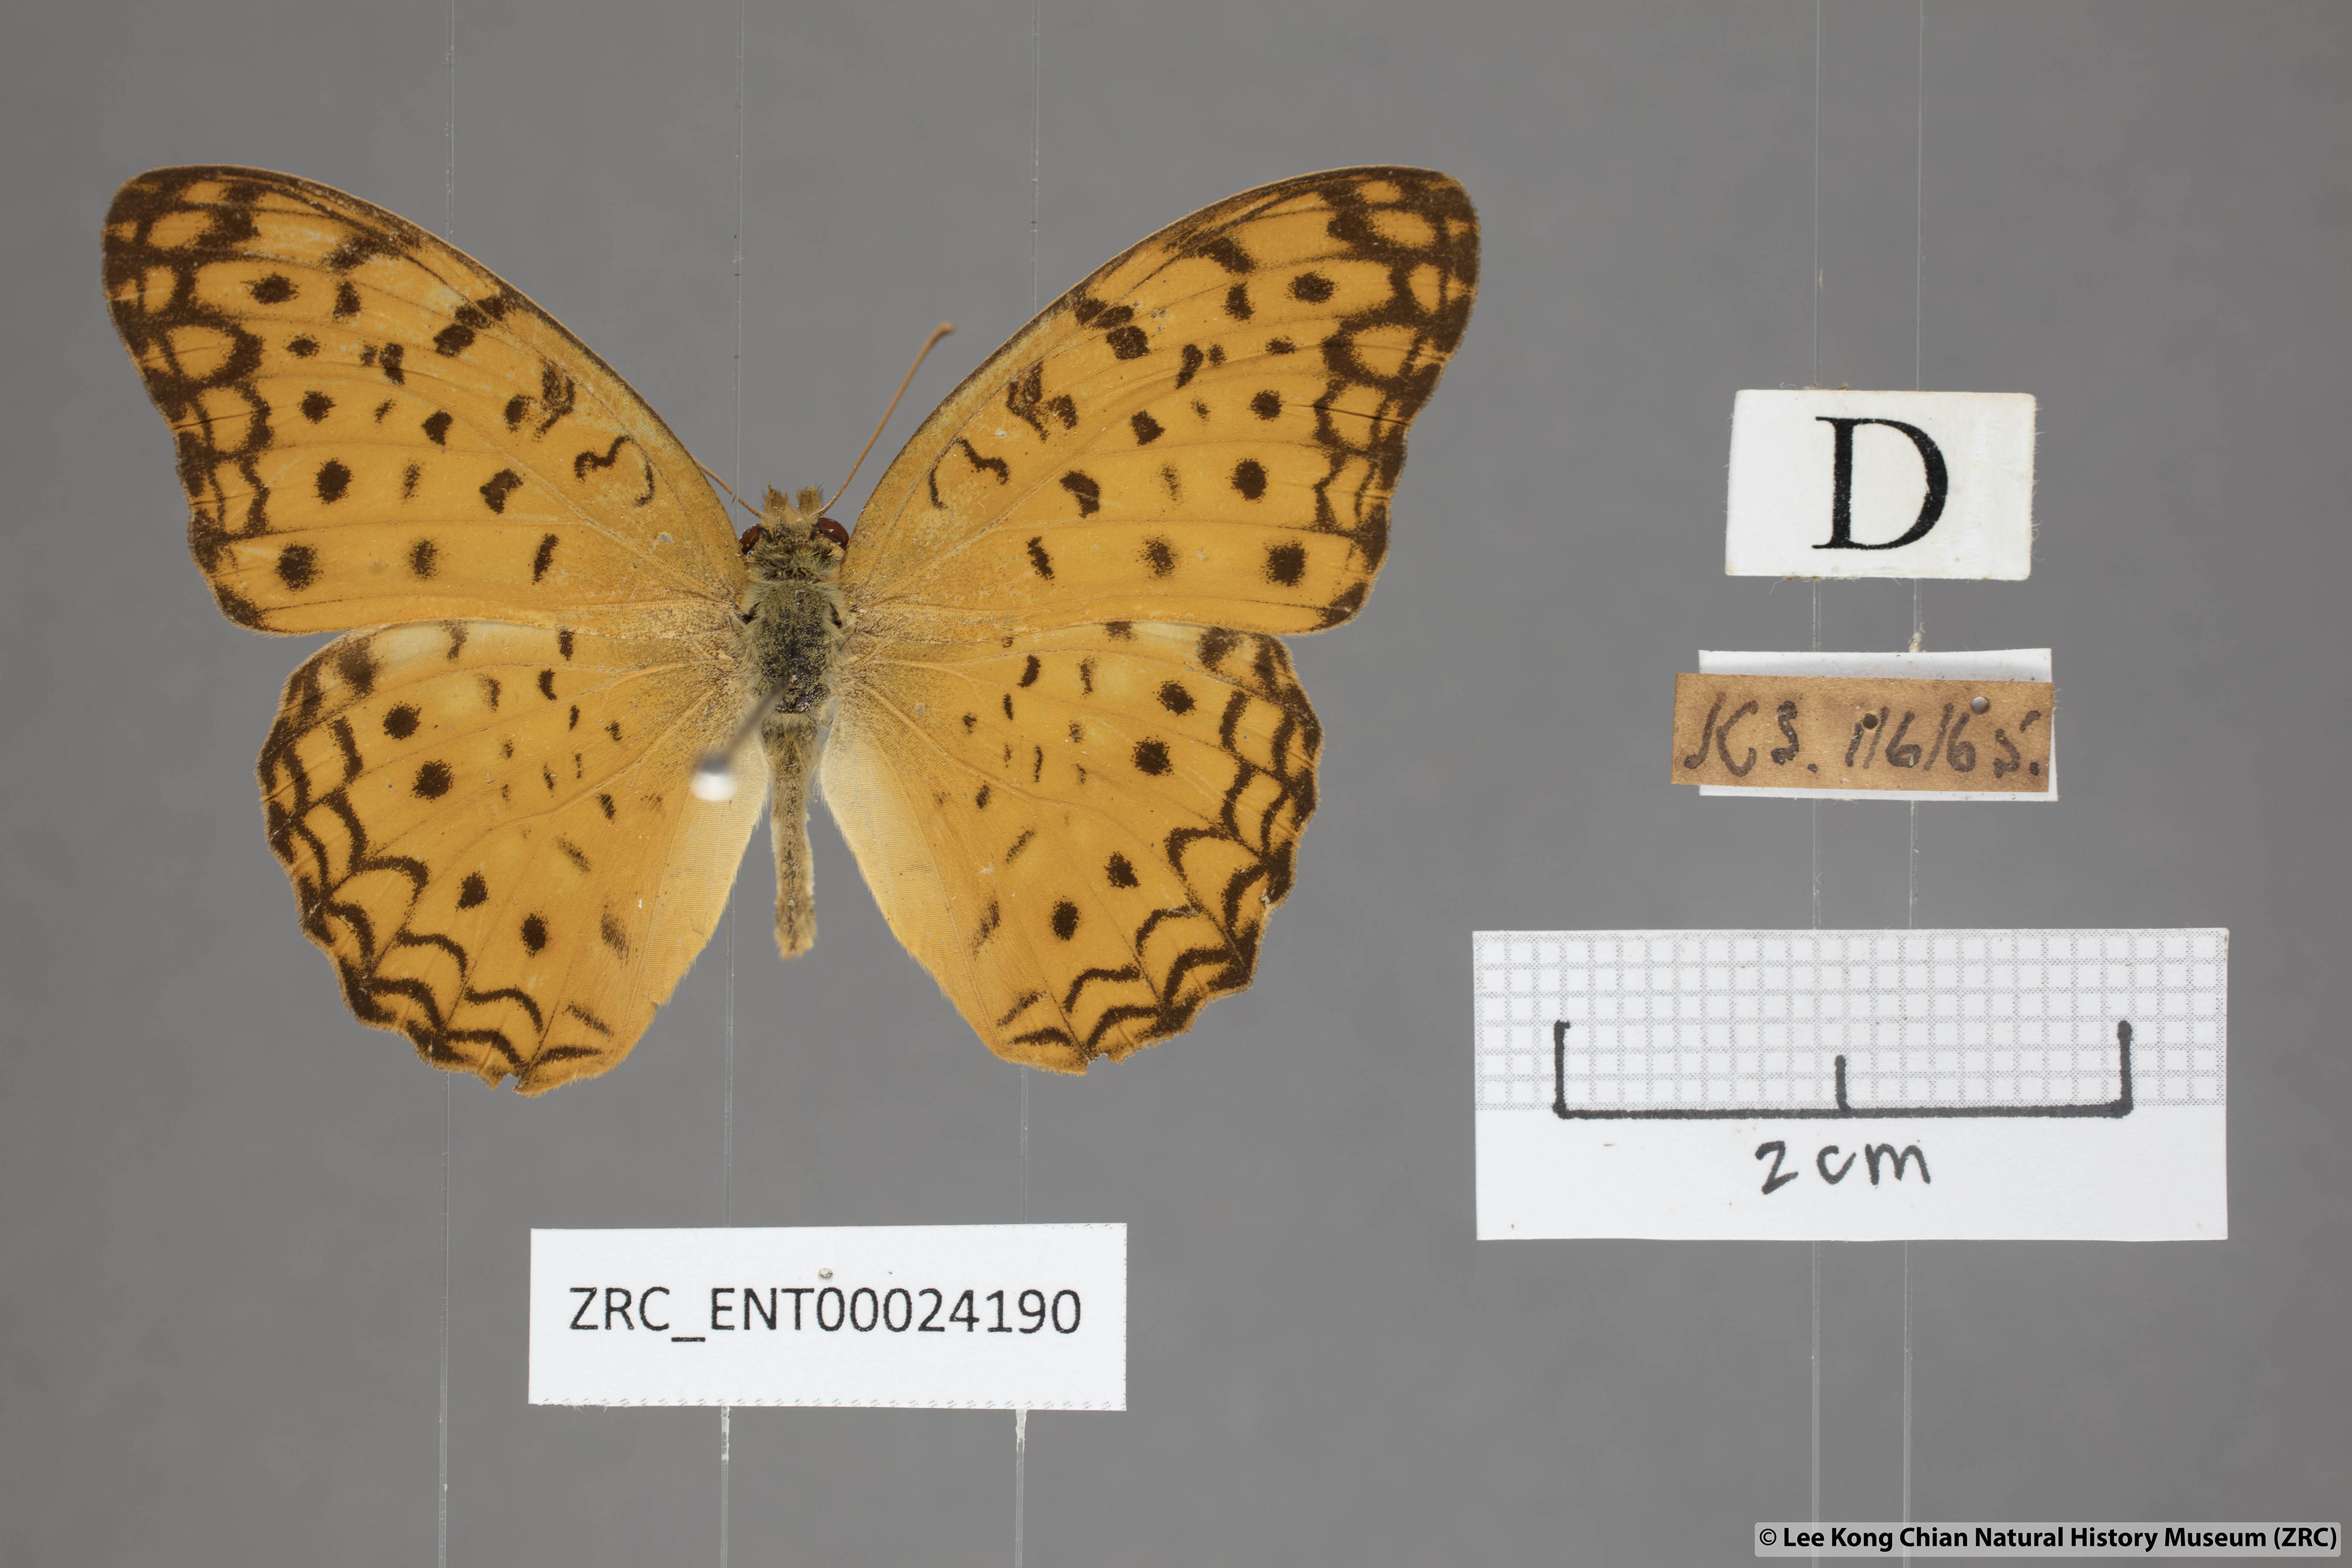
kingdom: Animalia
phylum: Arthropoda
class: Insecta
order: Lepidoptera
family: Nymphalidae
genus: Phalanta
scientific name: Phalanta phalantha
